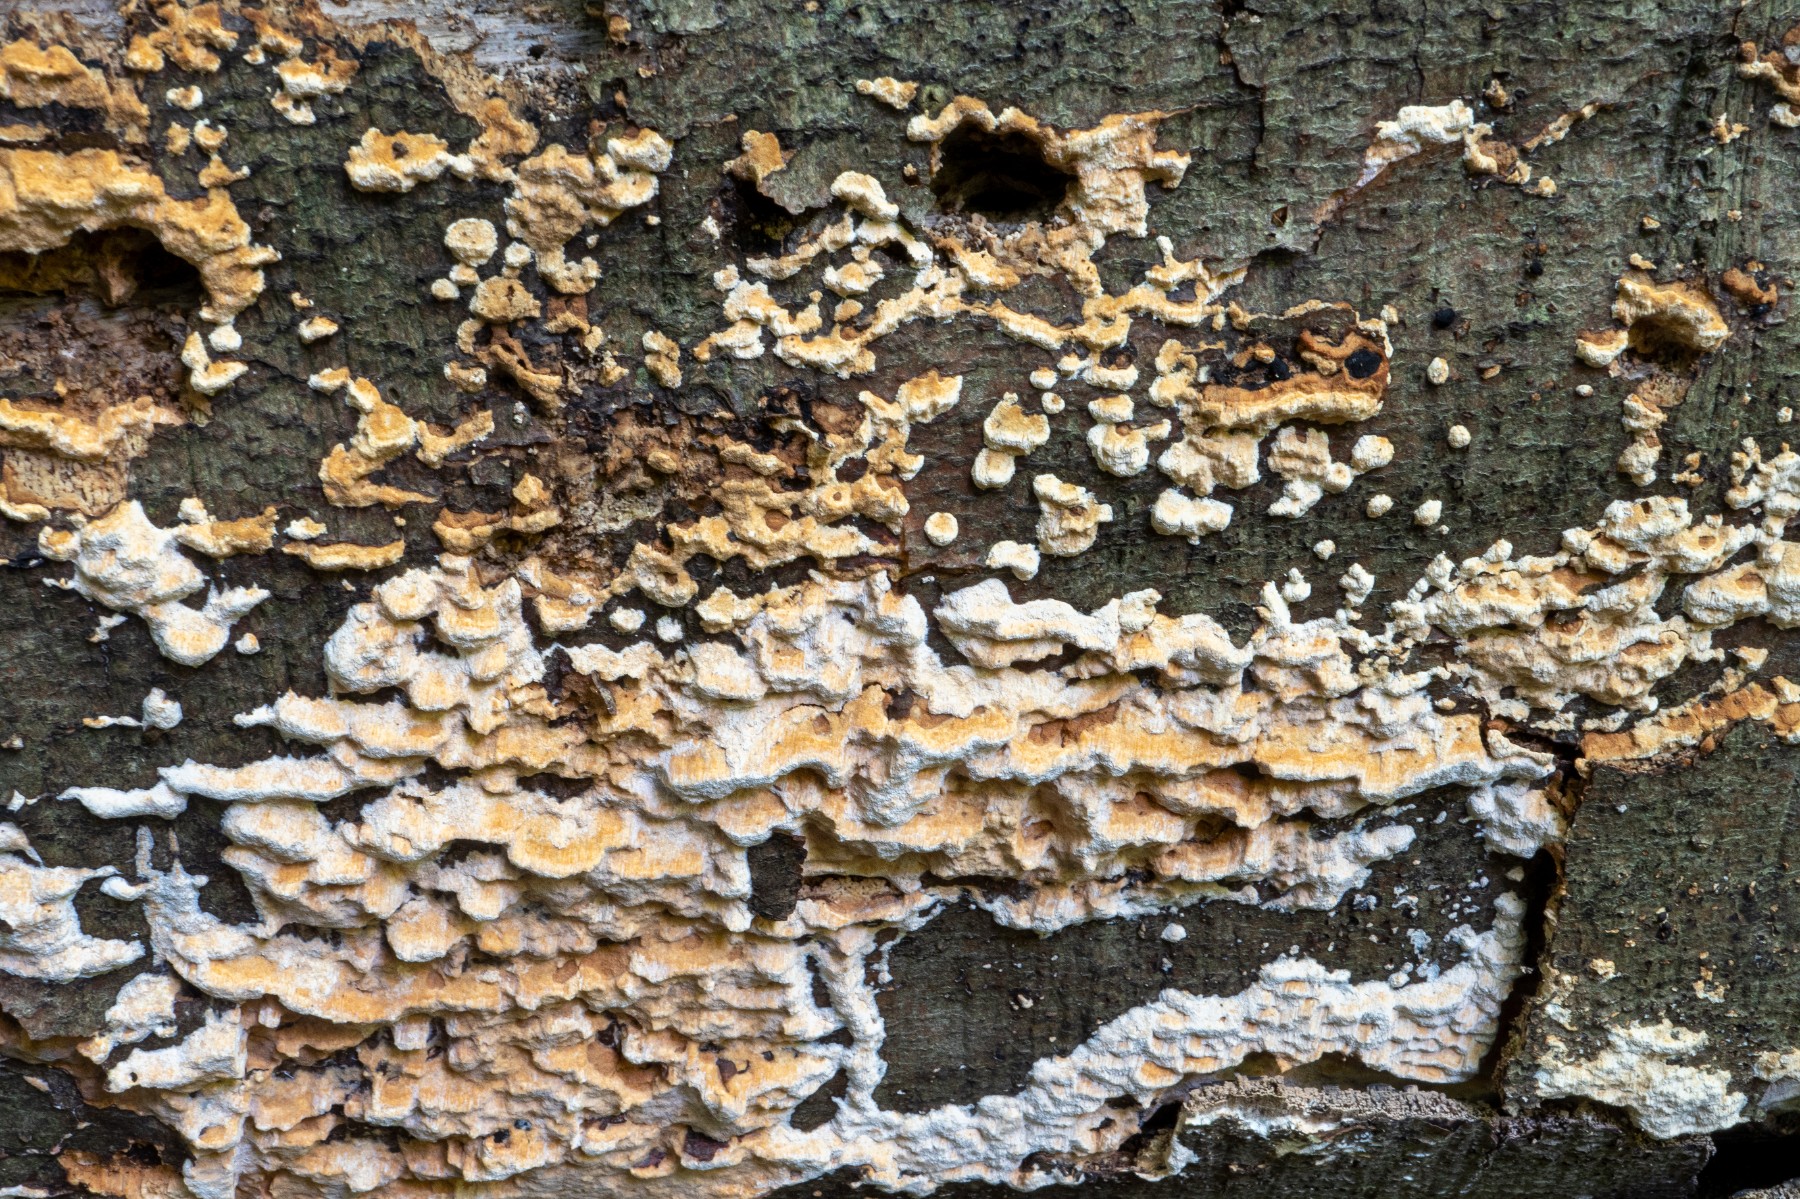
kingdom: Fungi
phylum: Basidiomycota
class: Agaricomycetes
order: Hymenochaetales
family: Schizoporaceae
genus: Xylodon
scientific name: Xylodon flaviporus
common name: gulporet tandsvamp
